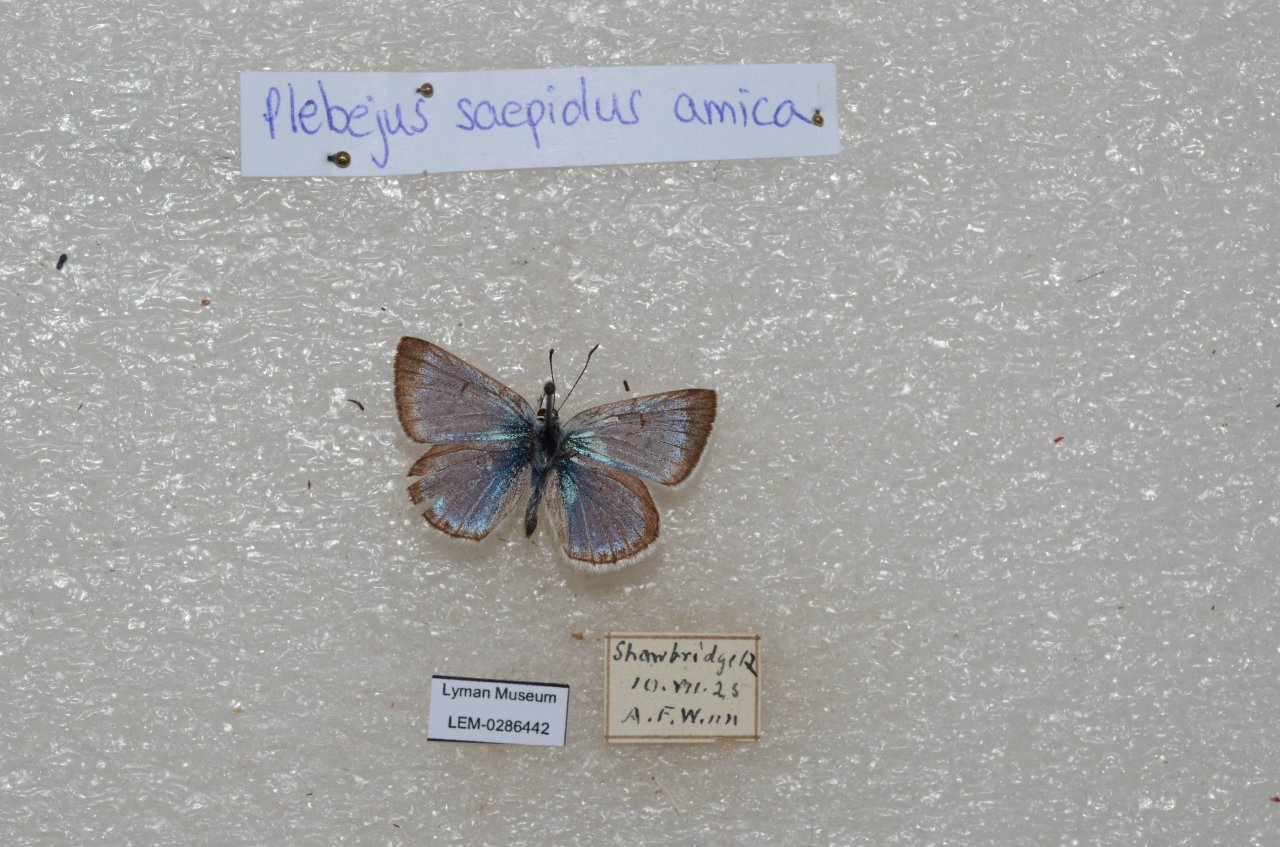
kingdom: Animalia
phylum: Arthropoda
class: Insecta
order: Lepidoptera
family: Lycaenidae
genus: Plebejus
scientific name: Plebejus saepiolus
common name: Greenish Blue
